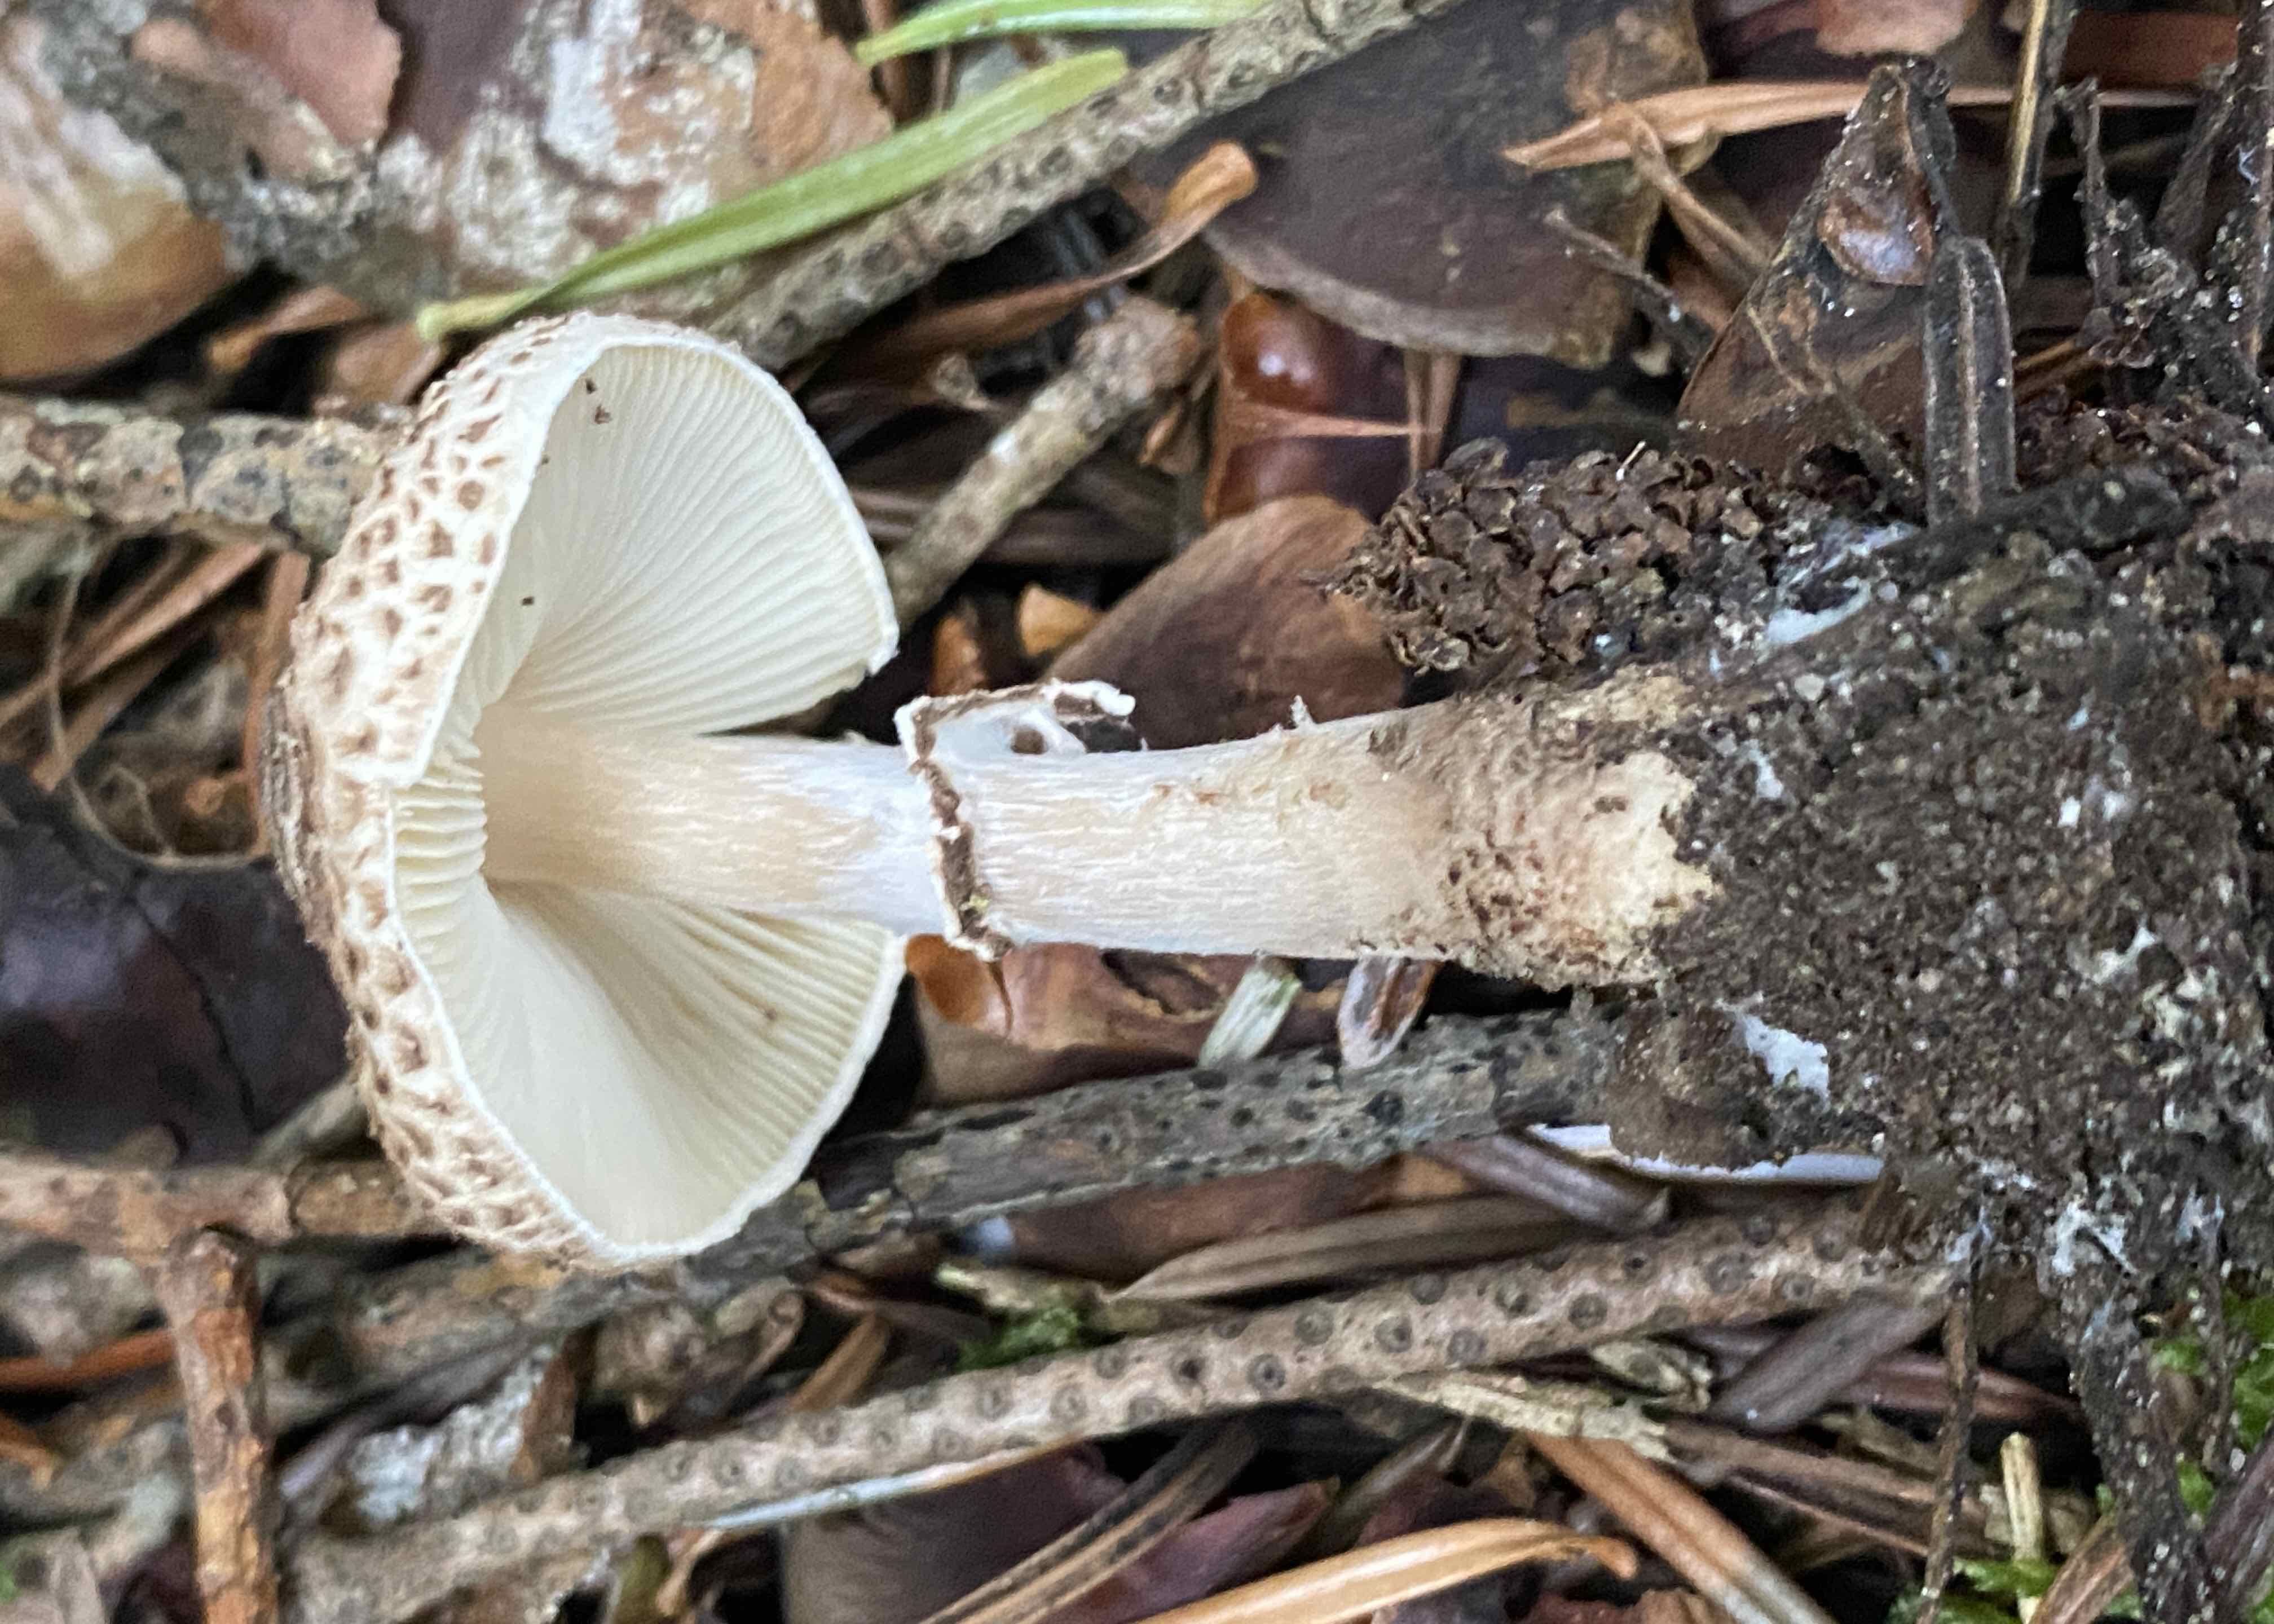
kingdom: Fungi
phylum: Basidiomycota
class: Agaricomycetes
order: Agaricales
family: Agaricaceae
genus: Lepiota
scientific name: Lepiota felina
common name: sortskællet parasolhat
